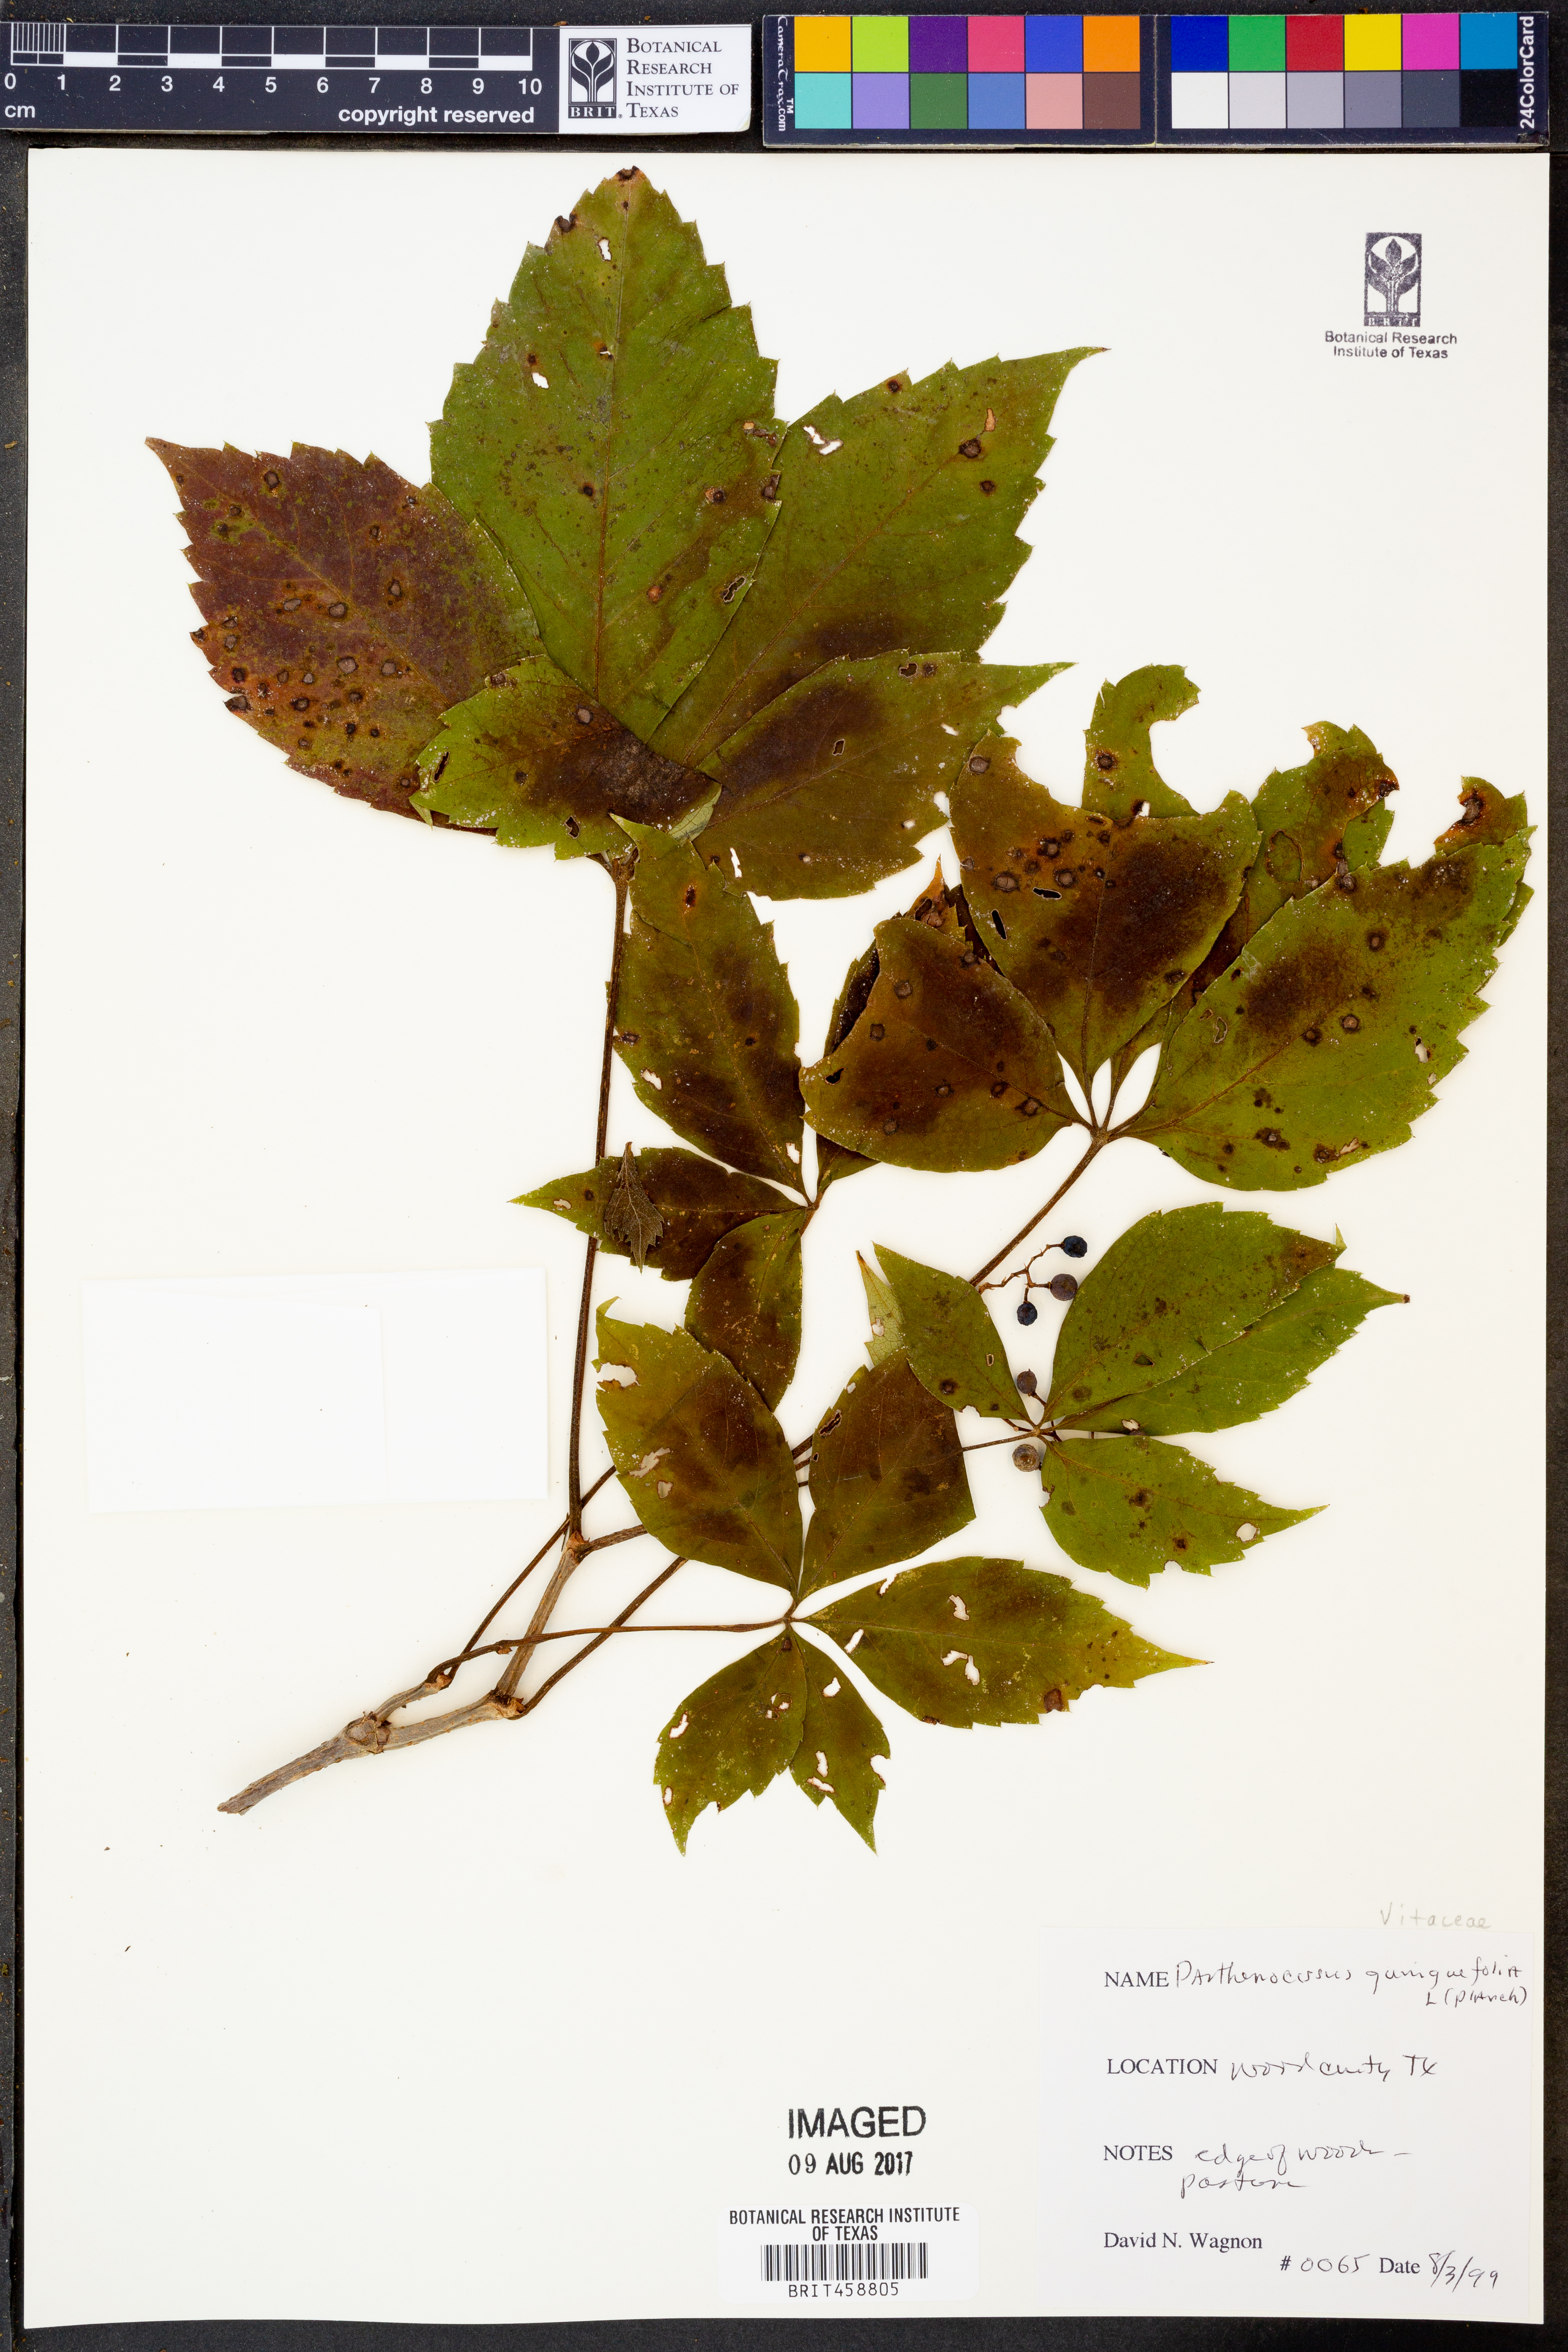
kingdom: Plantae
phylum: Tracheophyta
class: Magnoliopsida
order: Vitales
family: Vitaceae
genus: Parthenocissus
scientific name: Parthenocissus quinquefolia
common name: Virginia-creeper
